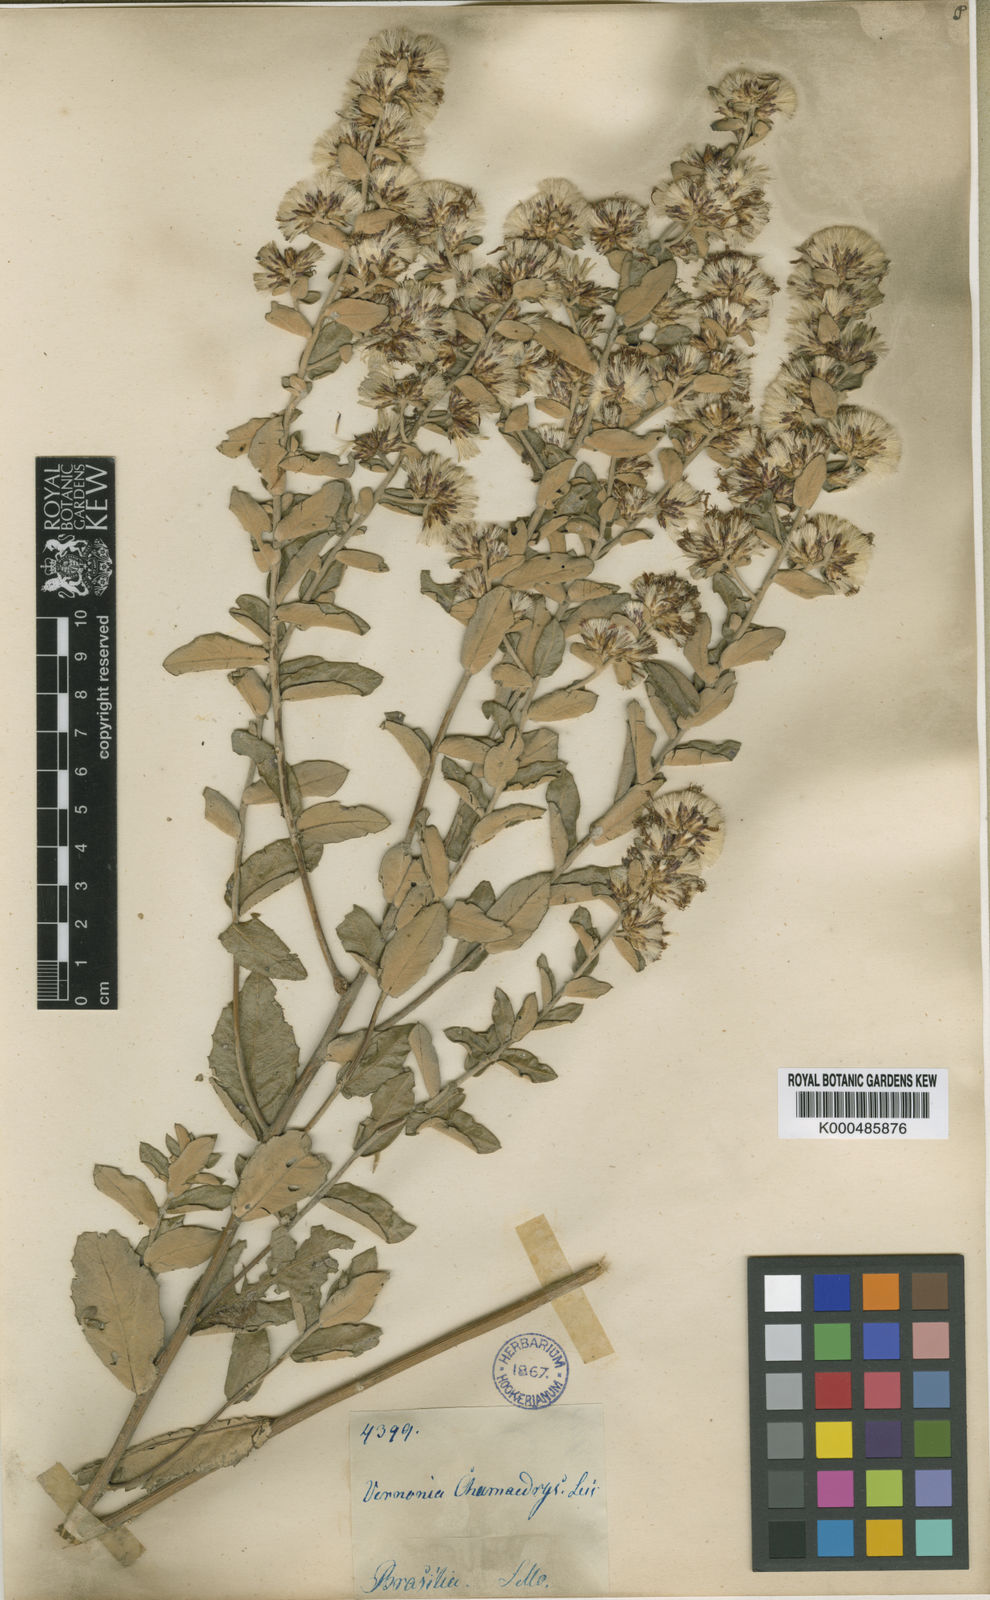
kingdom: Plantae
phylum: Tracheophyta
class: Magnoliopsida
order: Asterales
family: Asteraceae
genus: Vernonanthura
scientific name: Vernonanthura chamaedrys
